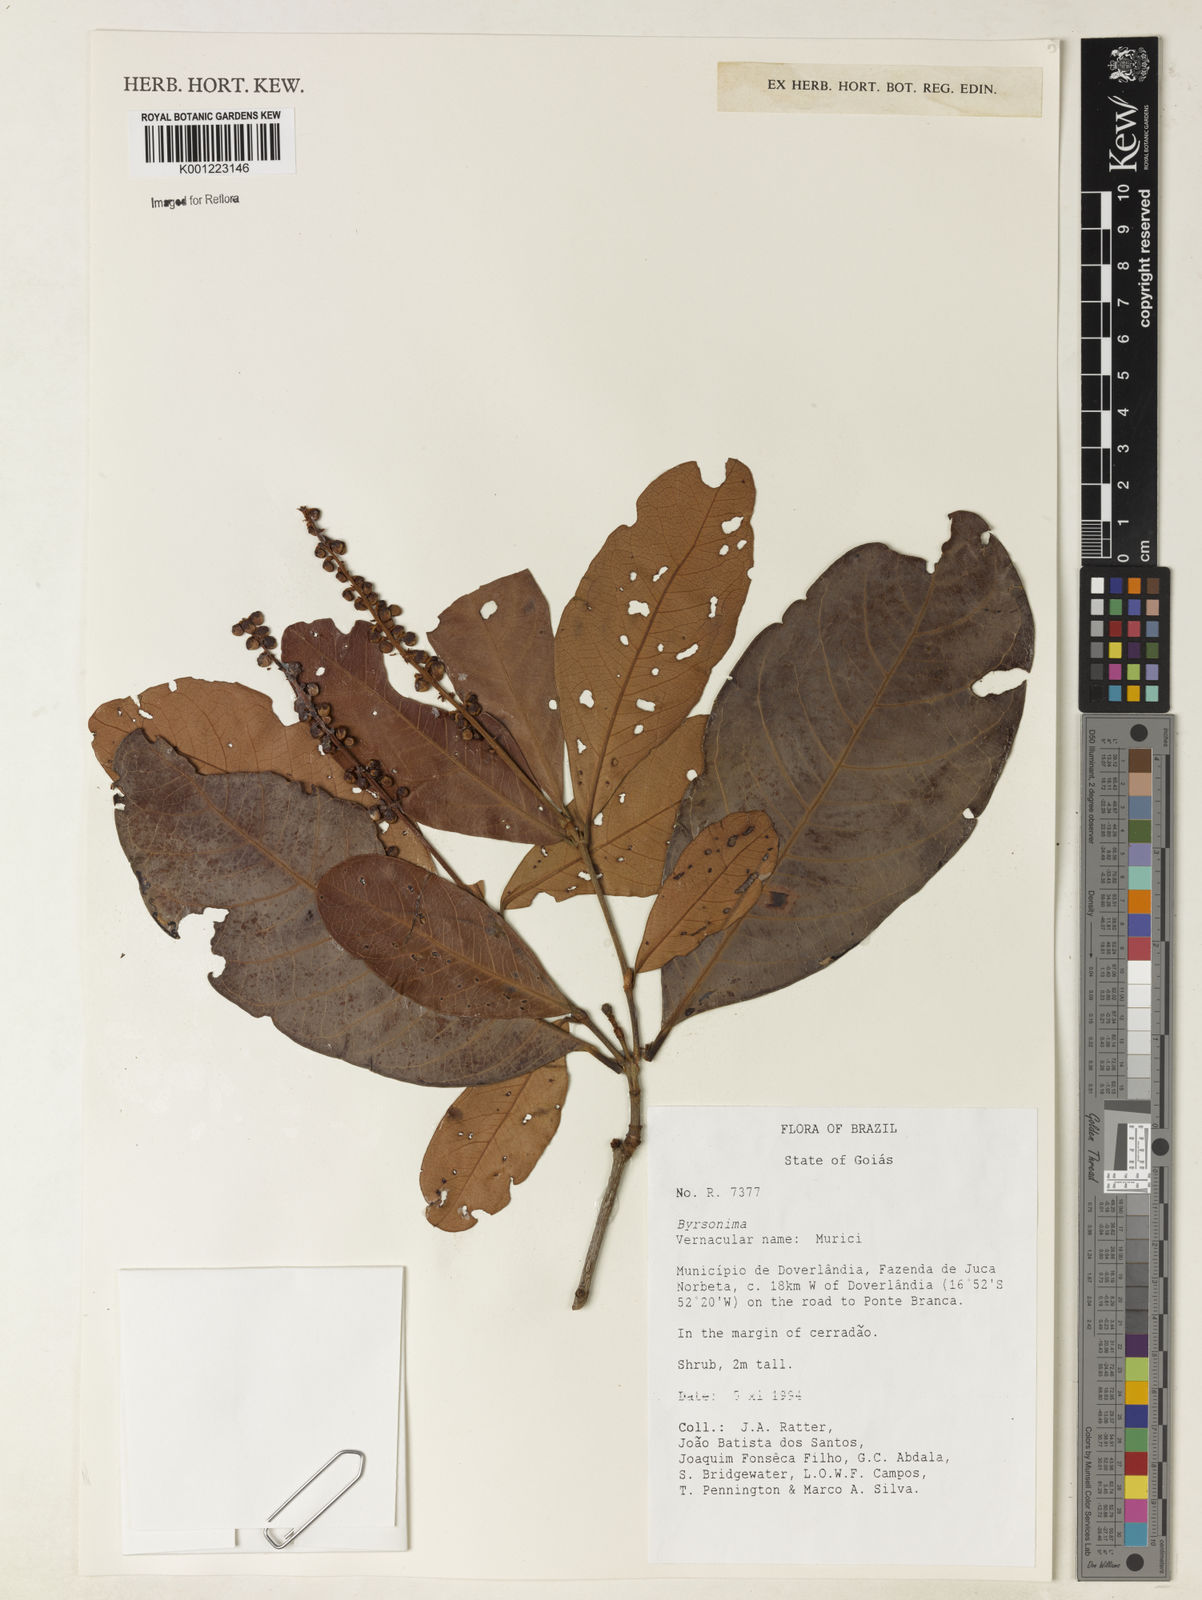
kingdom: Plantae
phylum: Tracheophyta
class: Magnoliopsida
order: Malpighiales
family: Malpighiaceae
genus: Byrsonima
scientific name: Byrsonima
